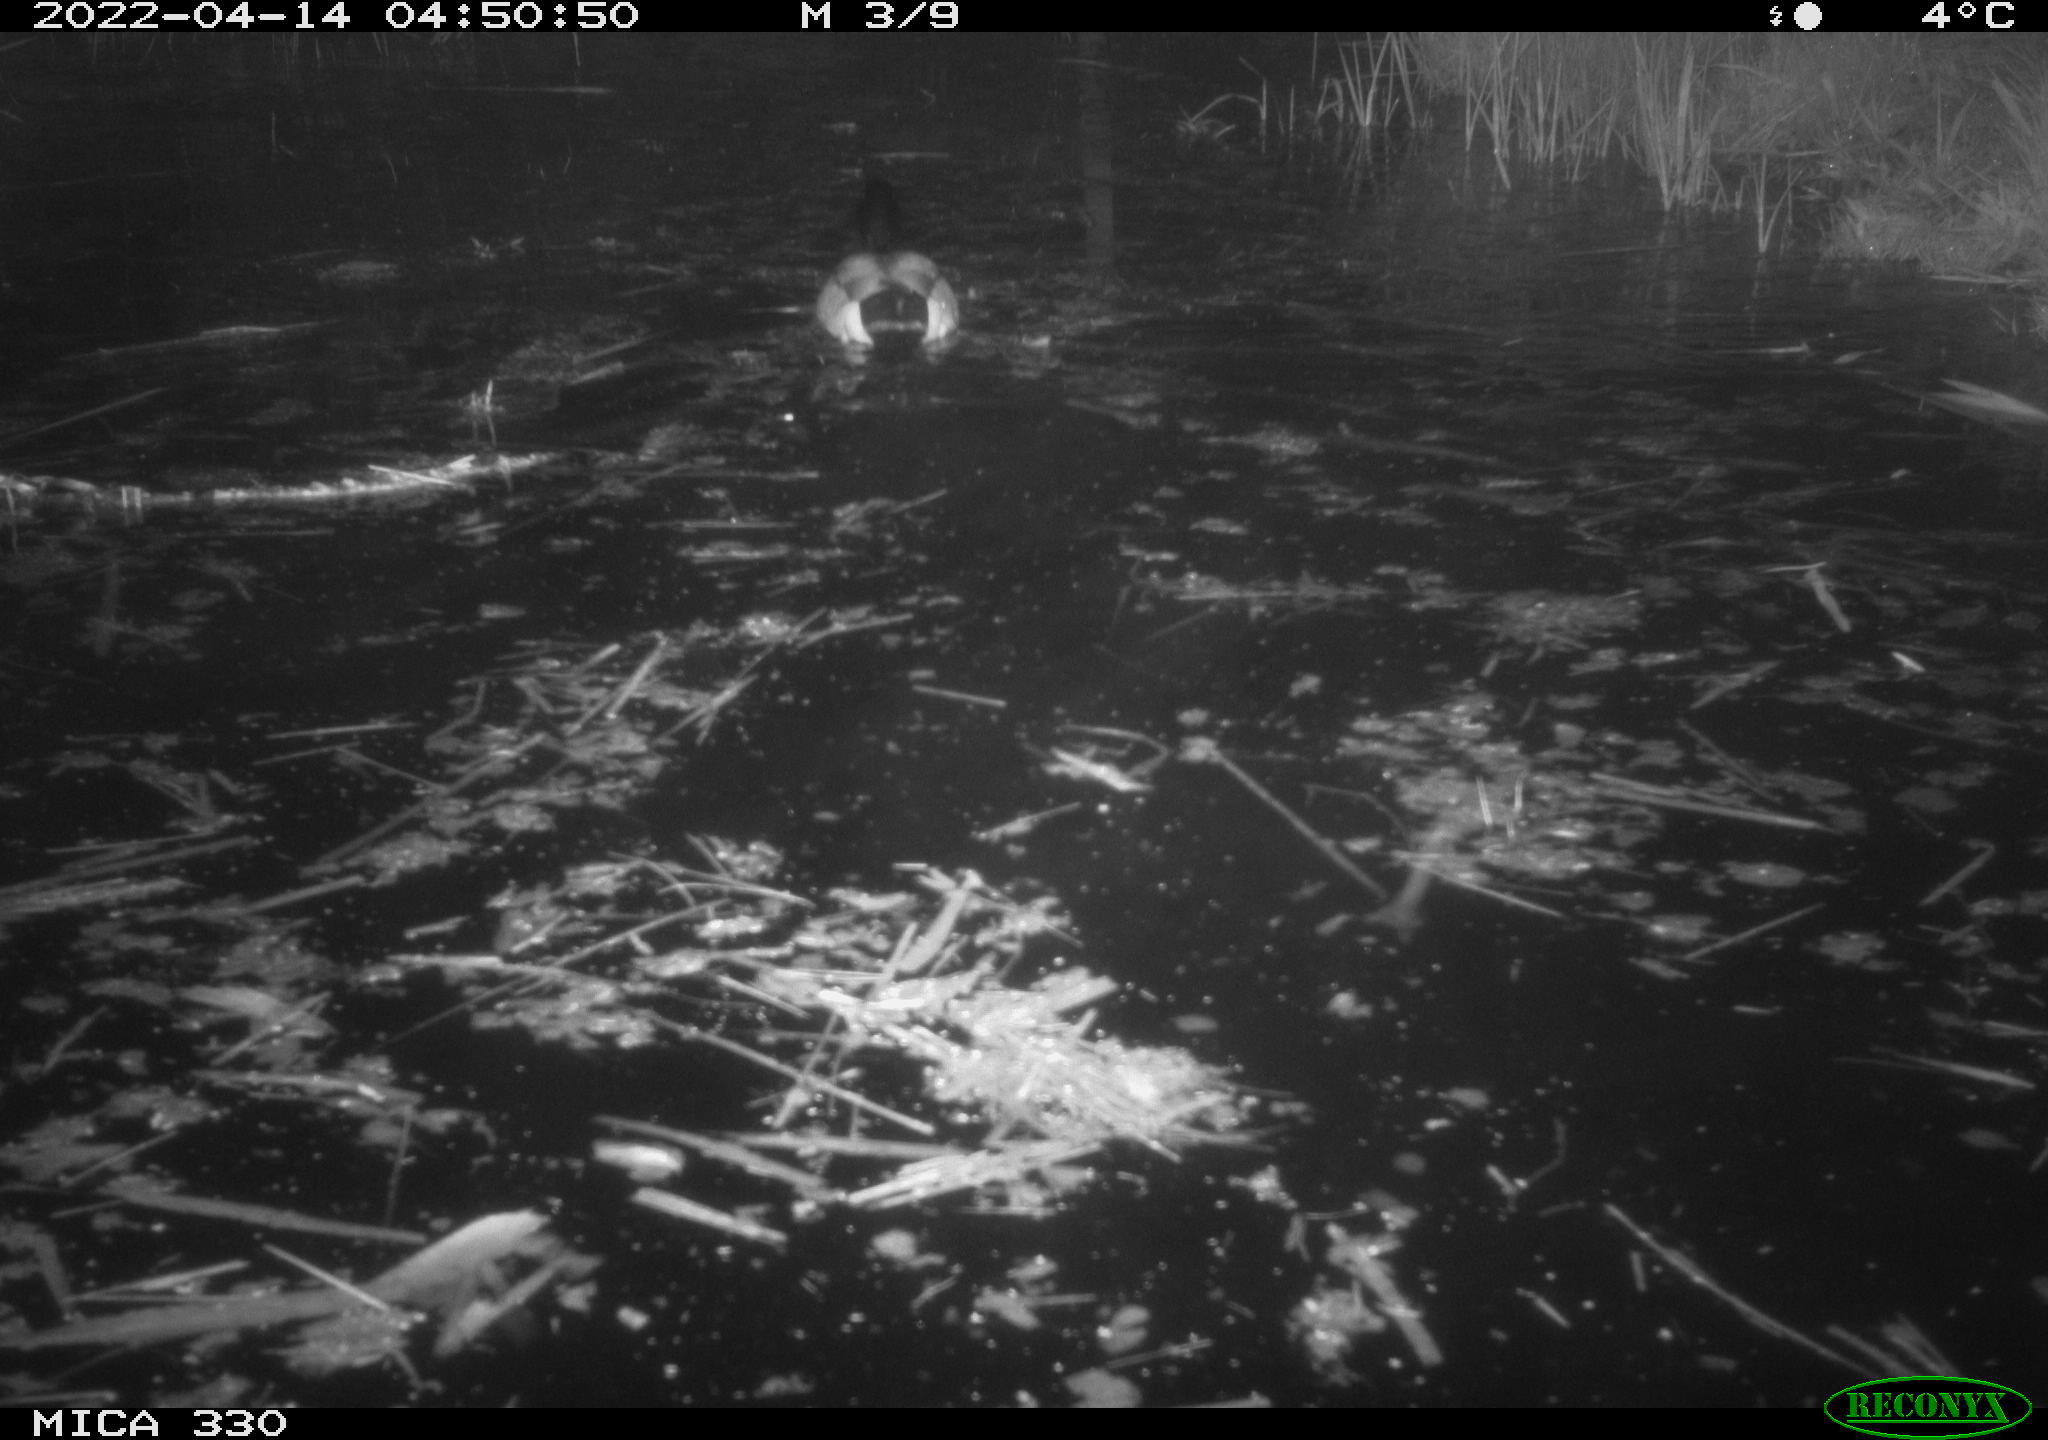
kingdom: Animalia
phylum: Chordata
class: Aves
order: Anseriformes
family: Anatidae
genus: Anas
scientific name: Anas platyrhynchos
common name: Mallard
